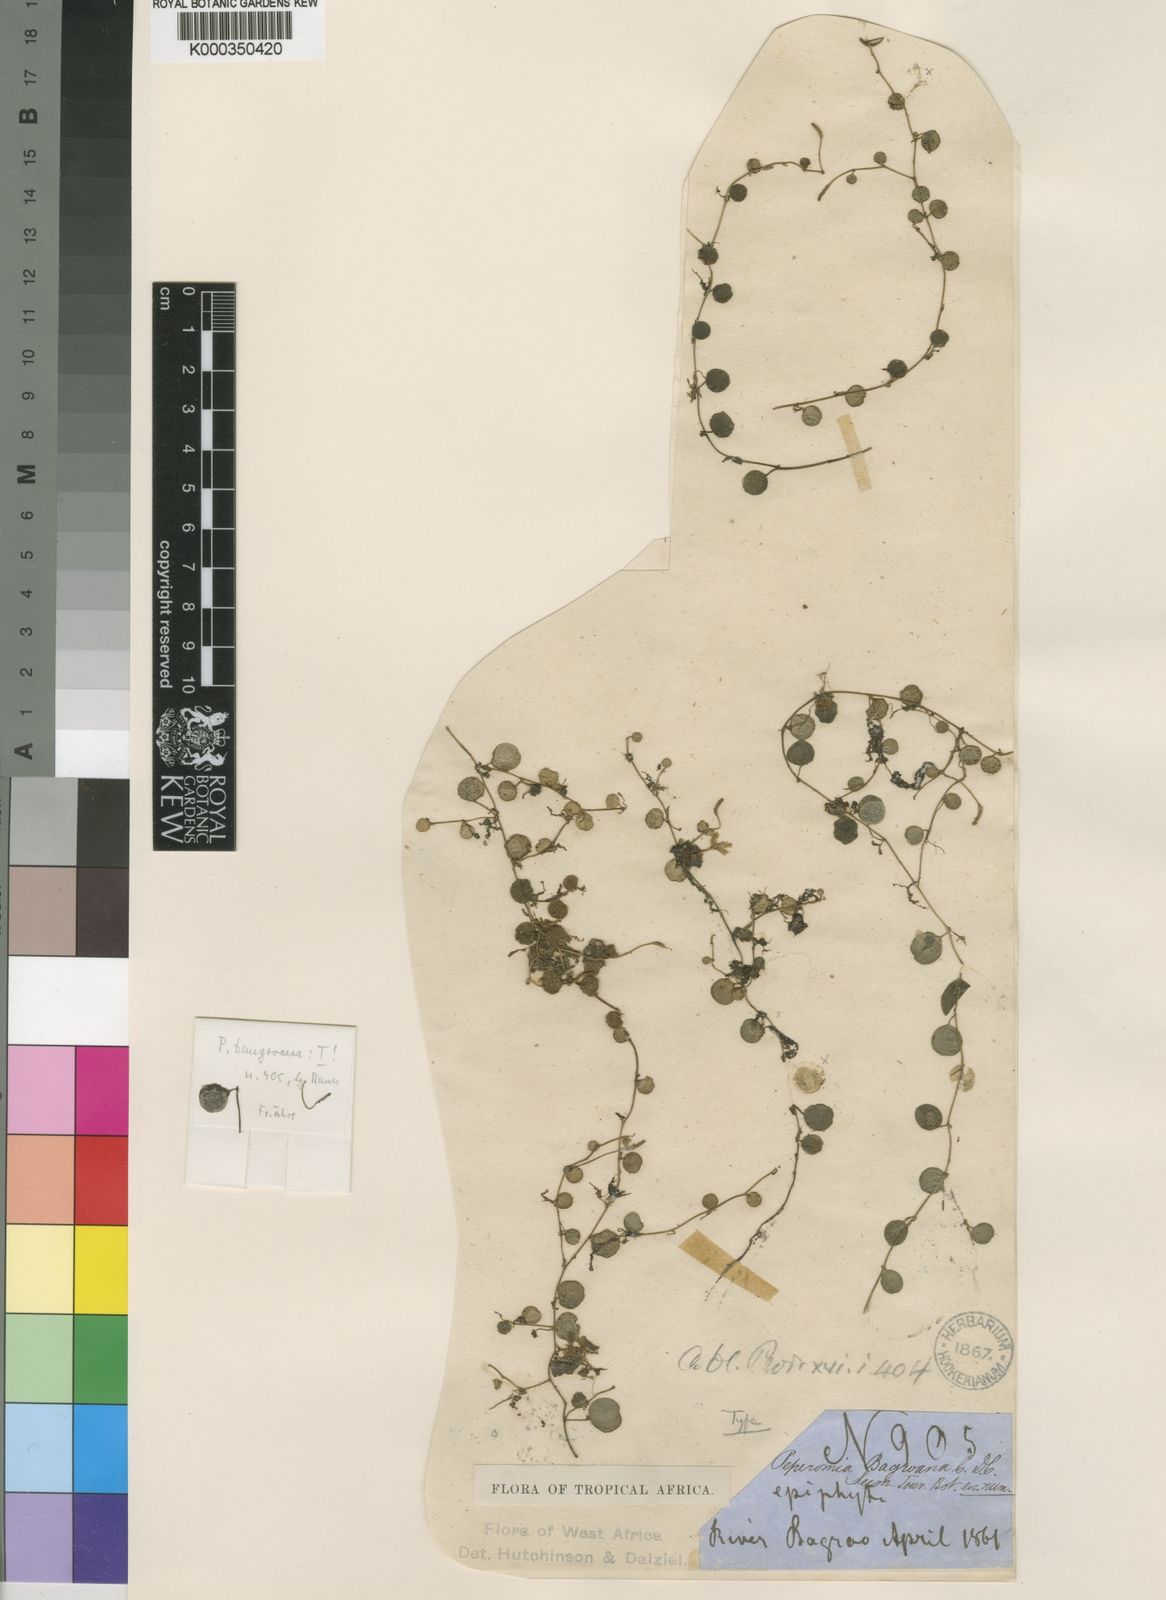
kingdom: Plantae
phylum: Tracheophyta
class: Magnoliopsida
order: Piperales
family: Piperaceae
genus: Peperomia
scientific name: Peperomia bangroana
